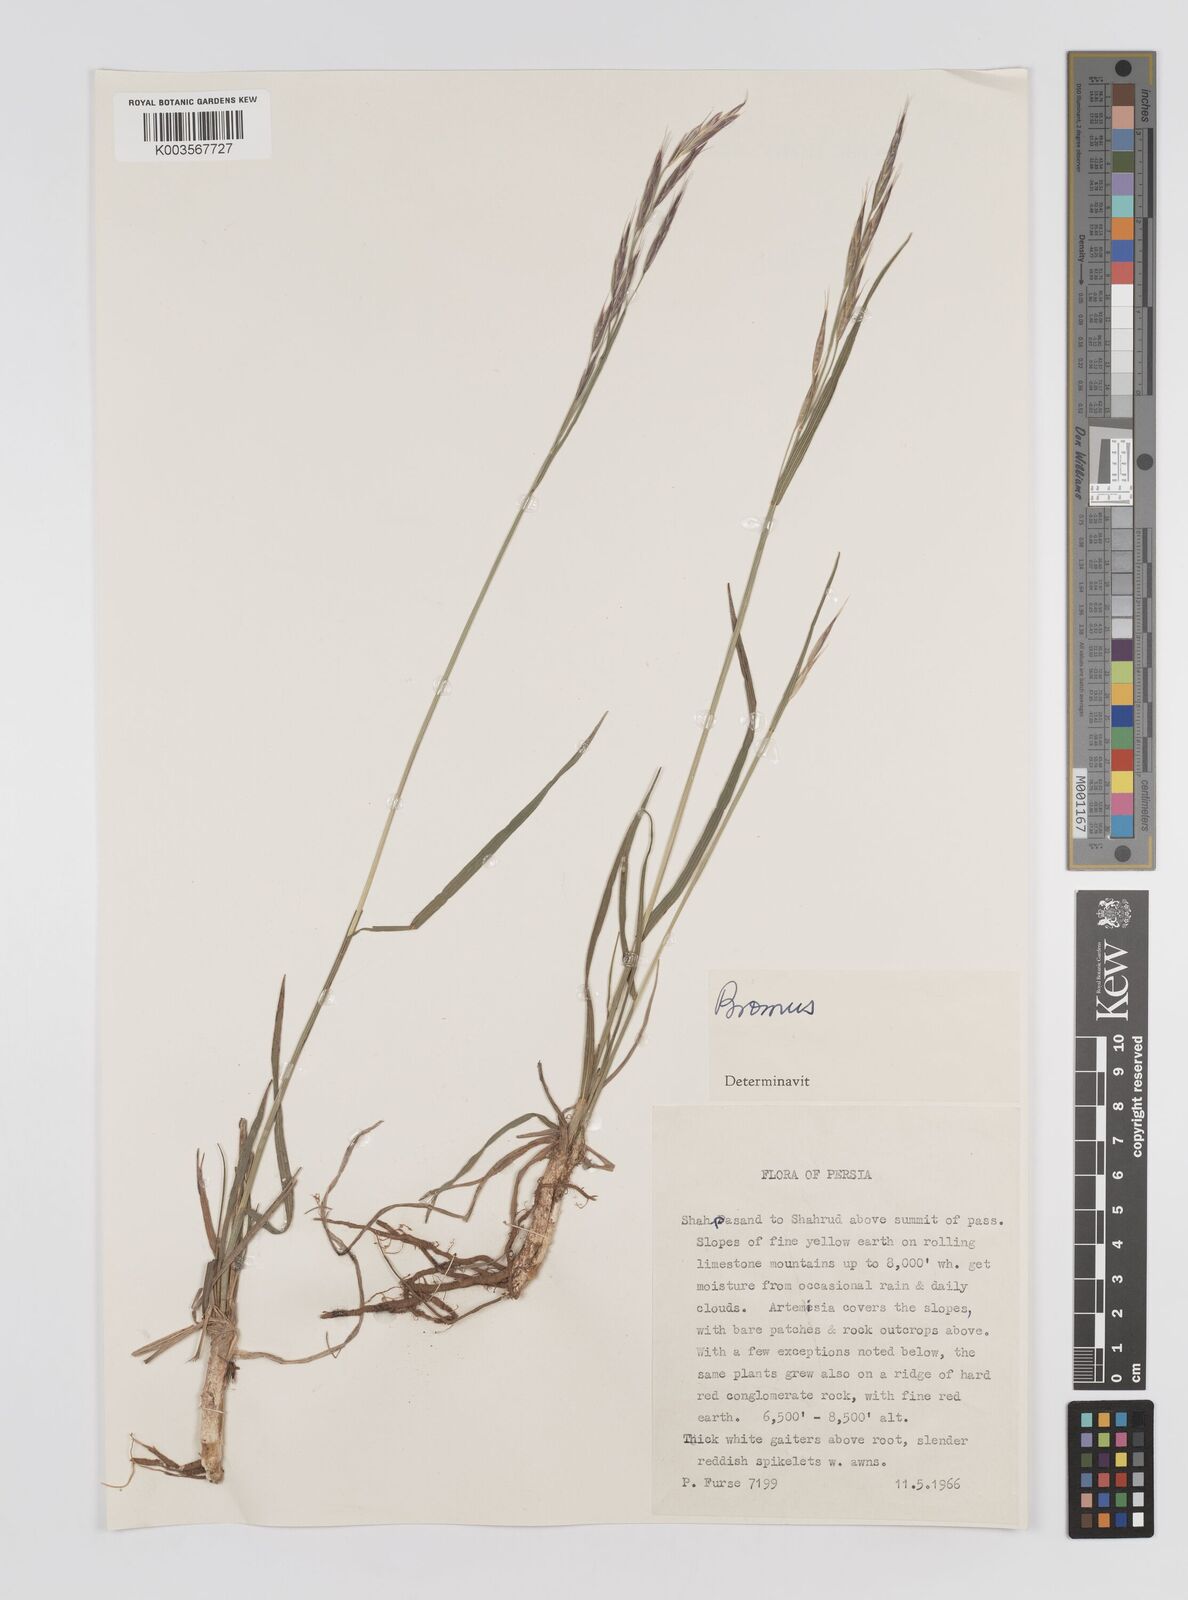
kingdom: Plantae
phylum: Tracheophyta
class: Liliopsida
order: Poales
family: Poaceae
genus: Bromus
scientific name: Bromus
